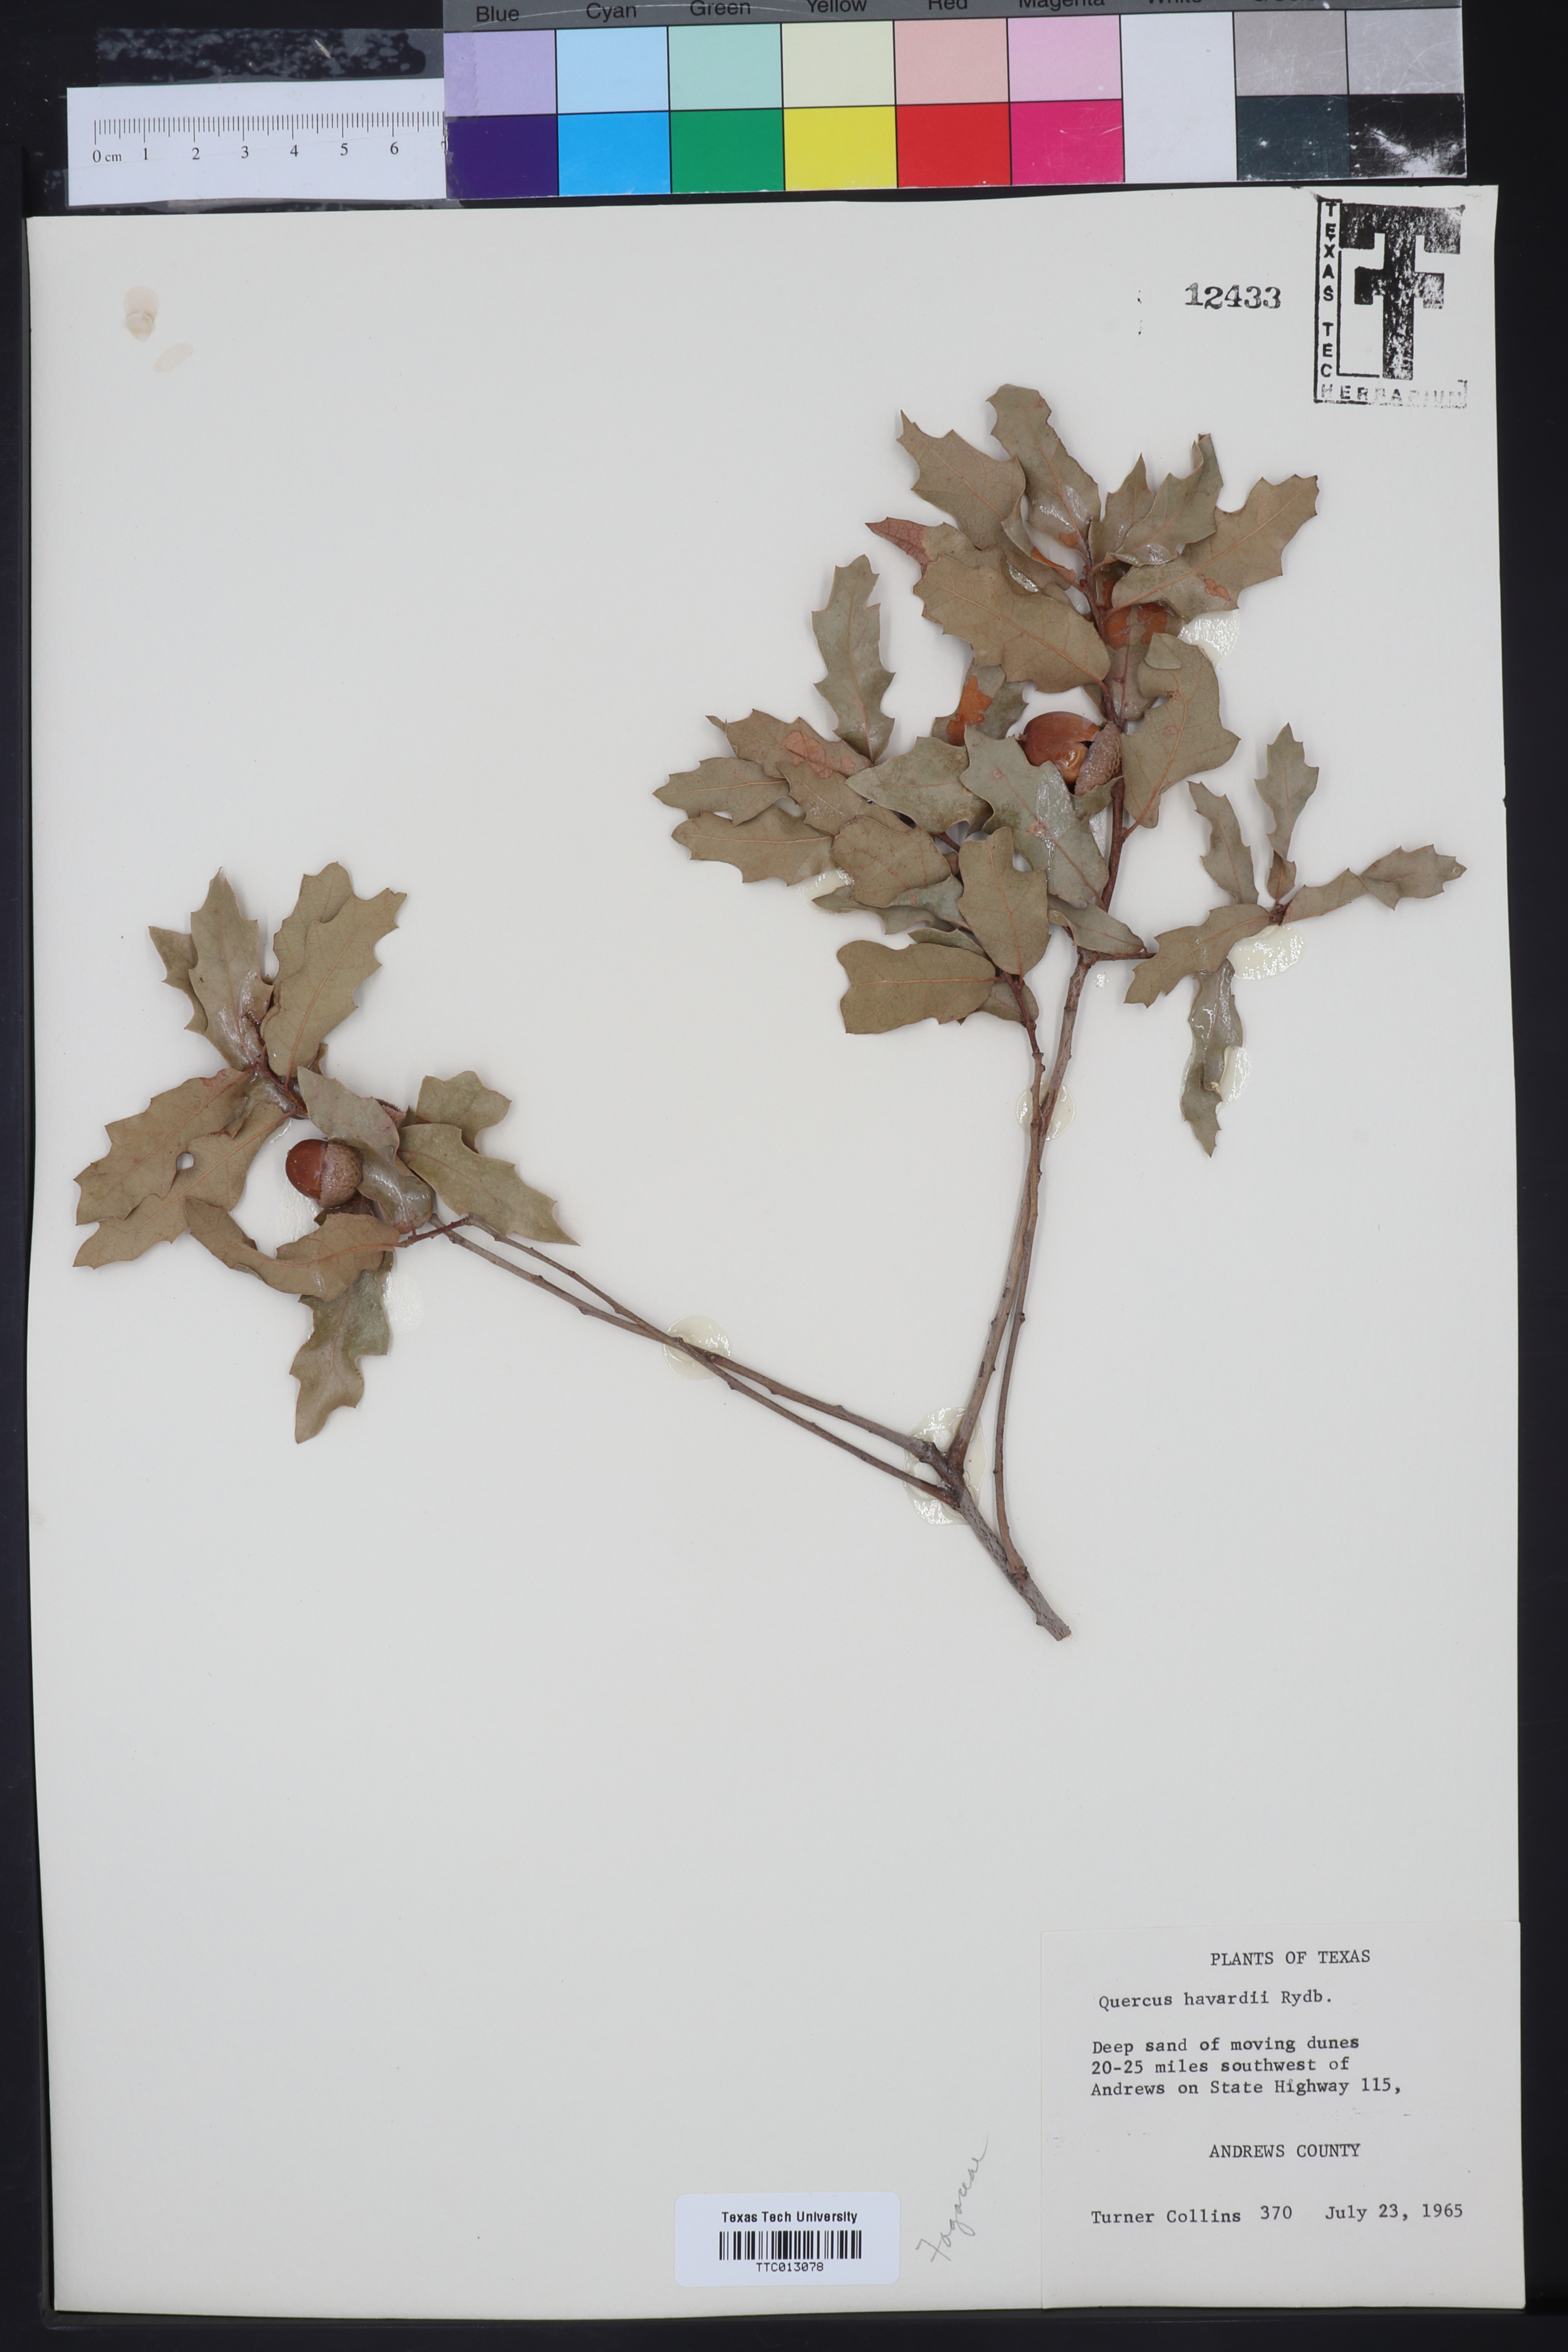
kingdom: Plantae
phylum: Tracheophyta
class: Magnoliopsida
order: Fagales
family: Fagaceae
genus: Quercus
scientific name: Quercus havardii
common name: Shinnery oak
